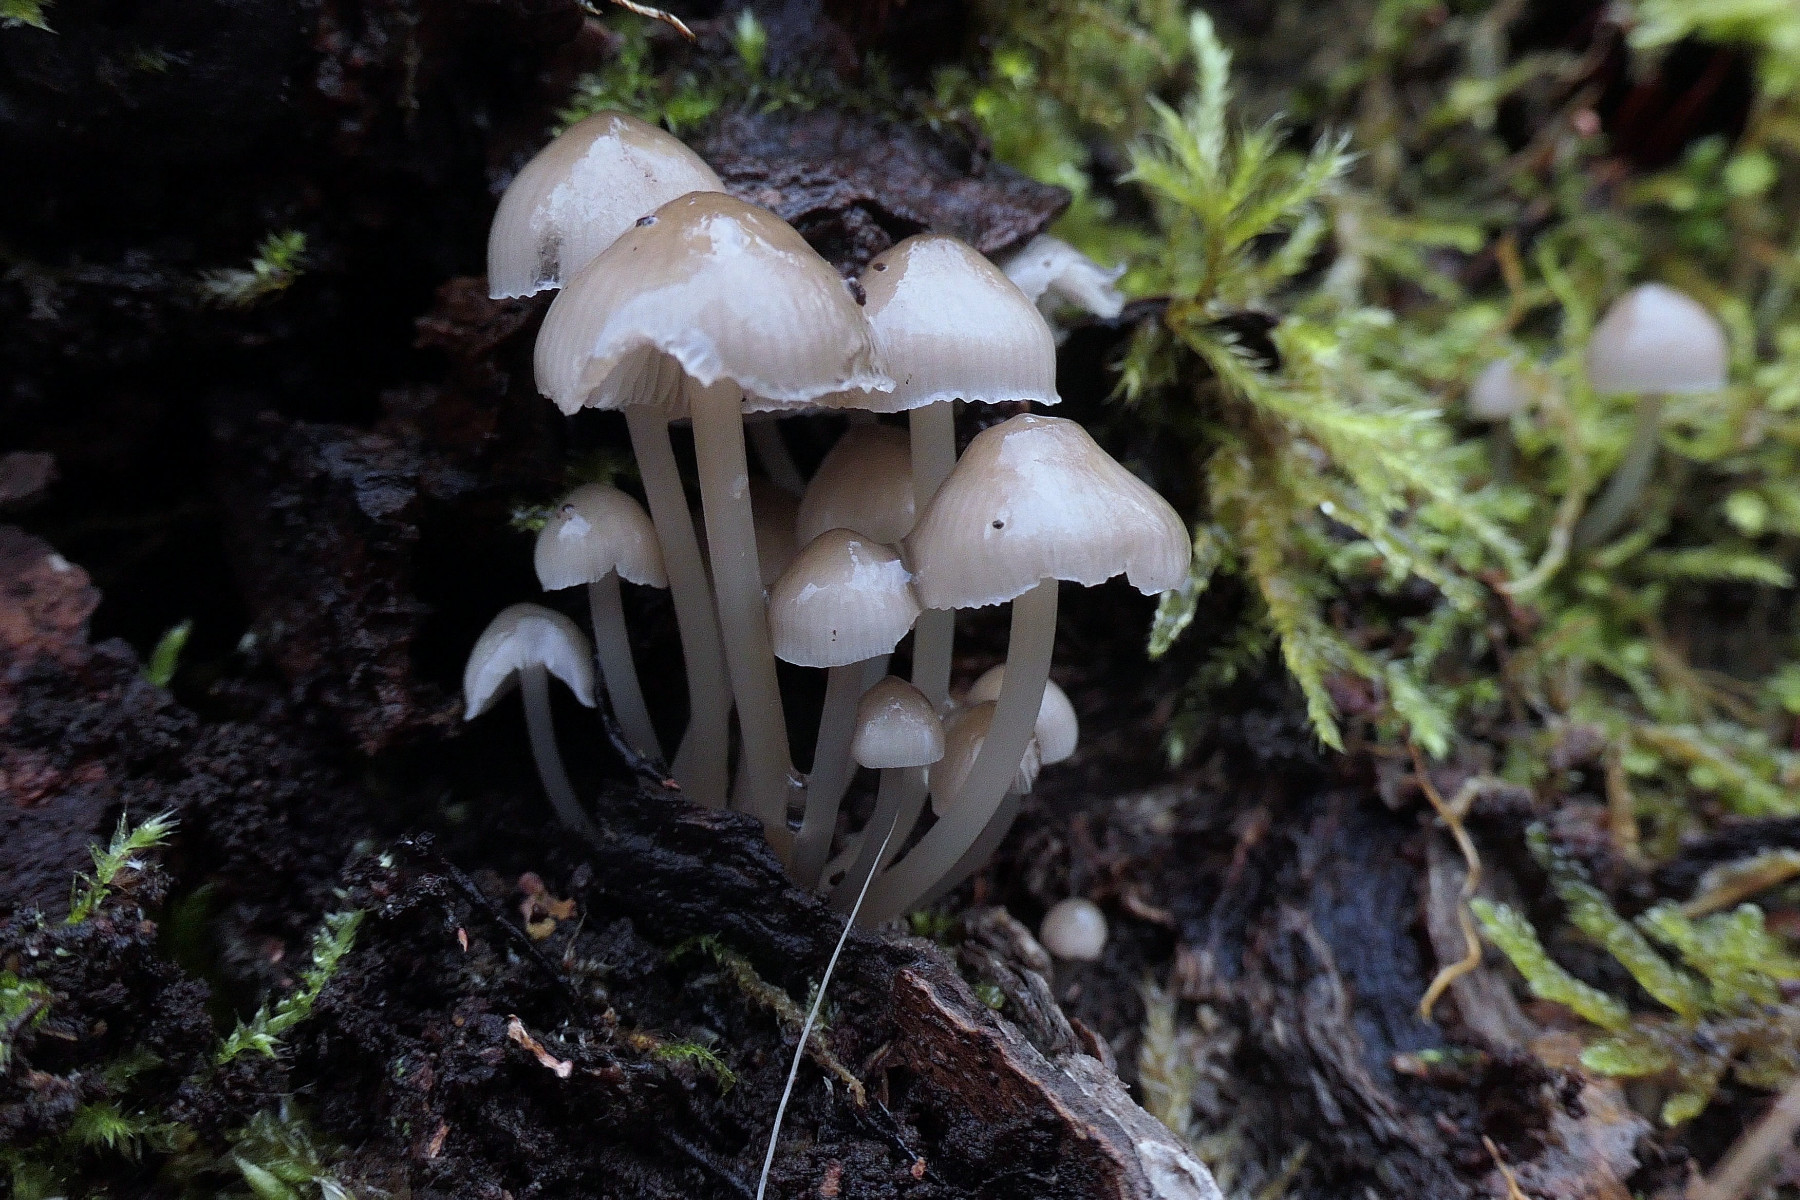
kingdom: Fungi
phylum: Basidiomycota
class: Agaricomycetes
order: Agaricales
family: Mycenaceae
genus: Mycena
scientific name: Mycena tintinnabulum
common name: vinter-huesvamp
